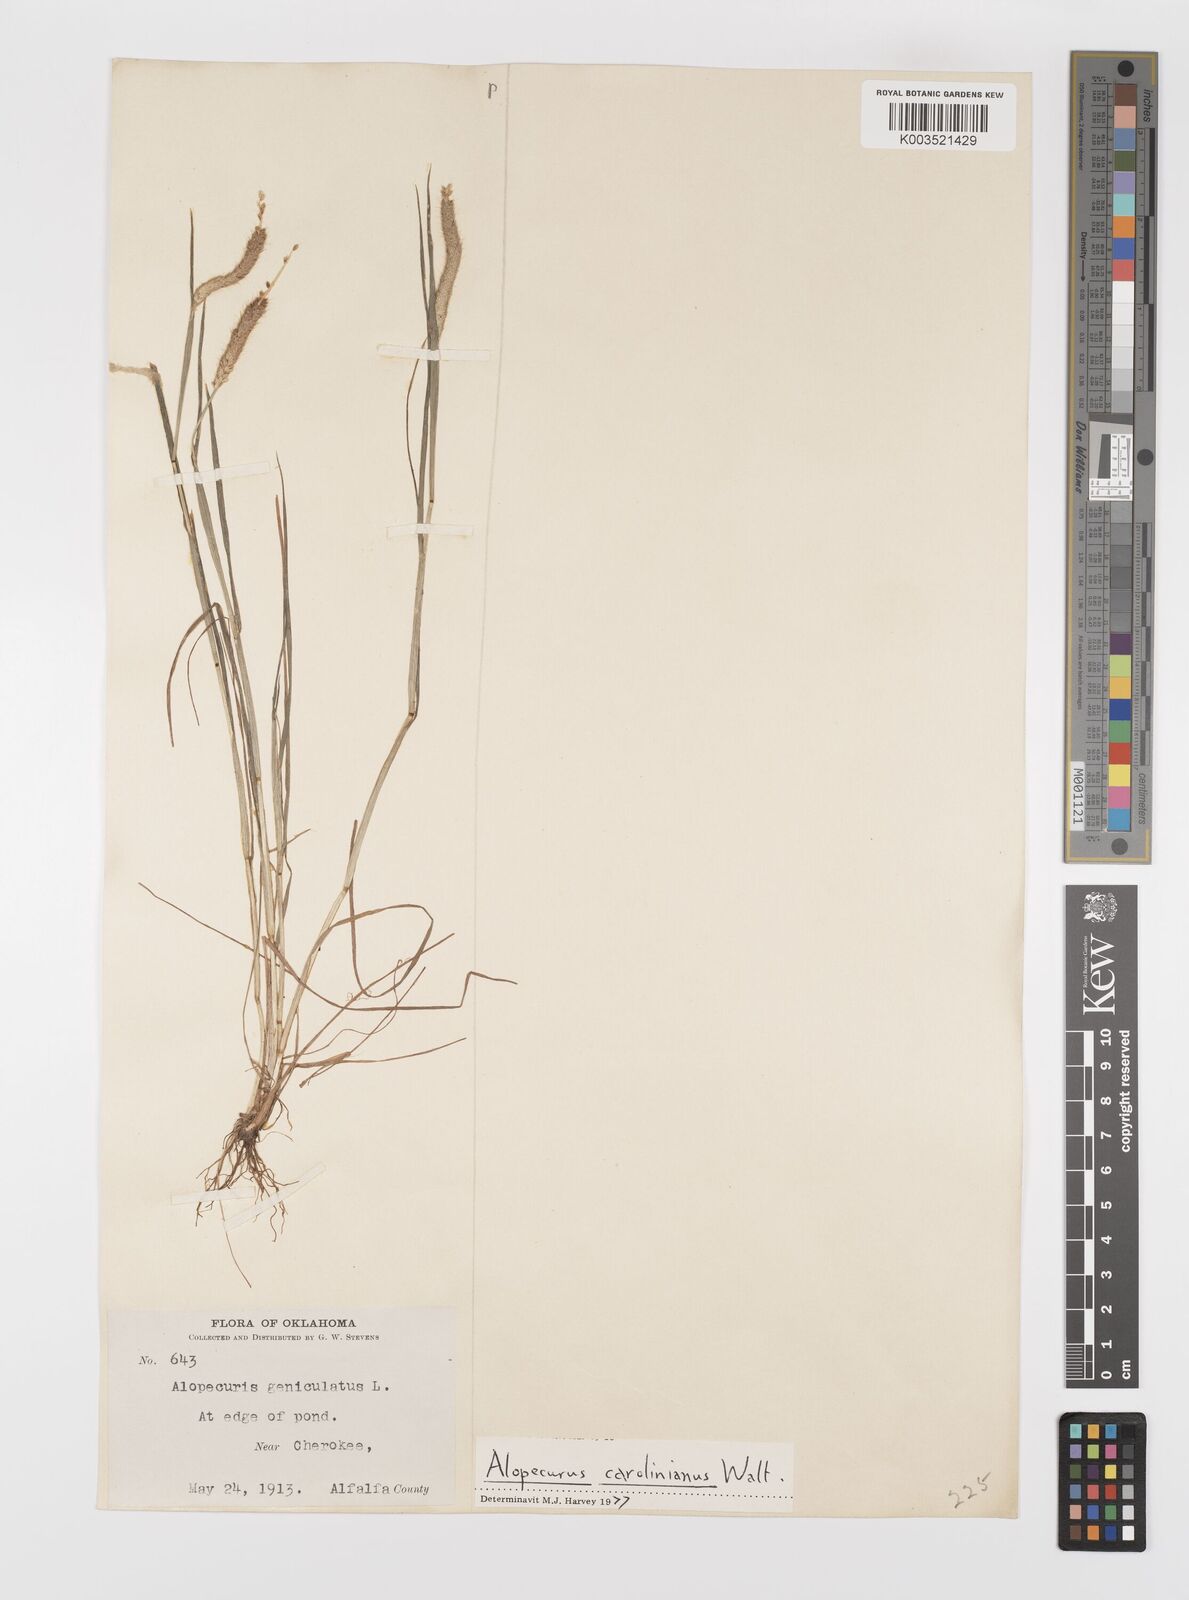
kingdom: Plantae
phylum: Tracheophyta
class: Liliopsida
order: Poales
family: Poaceae
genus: Alopecurus
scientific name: Alopecurus carolinianus
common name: Tufted foxtail
